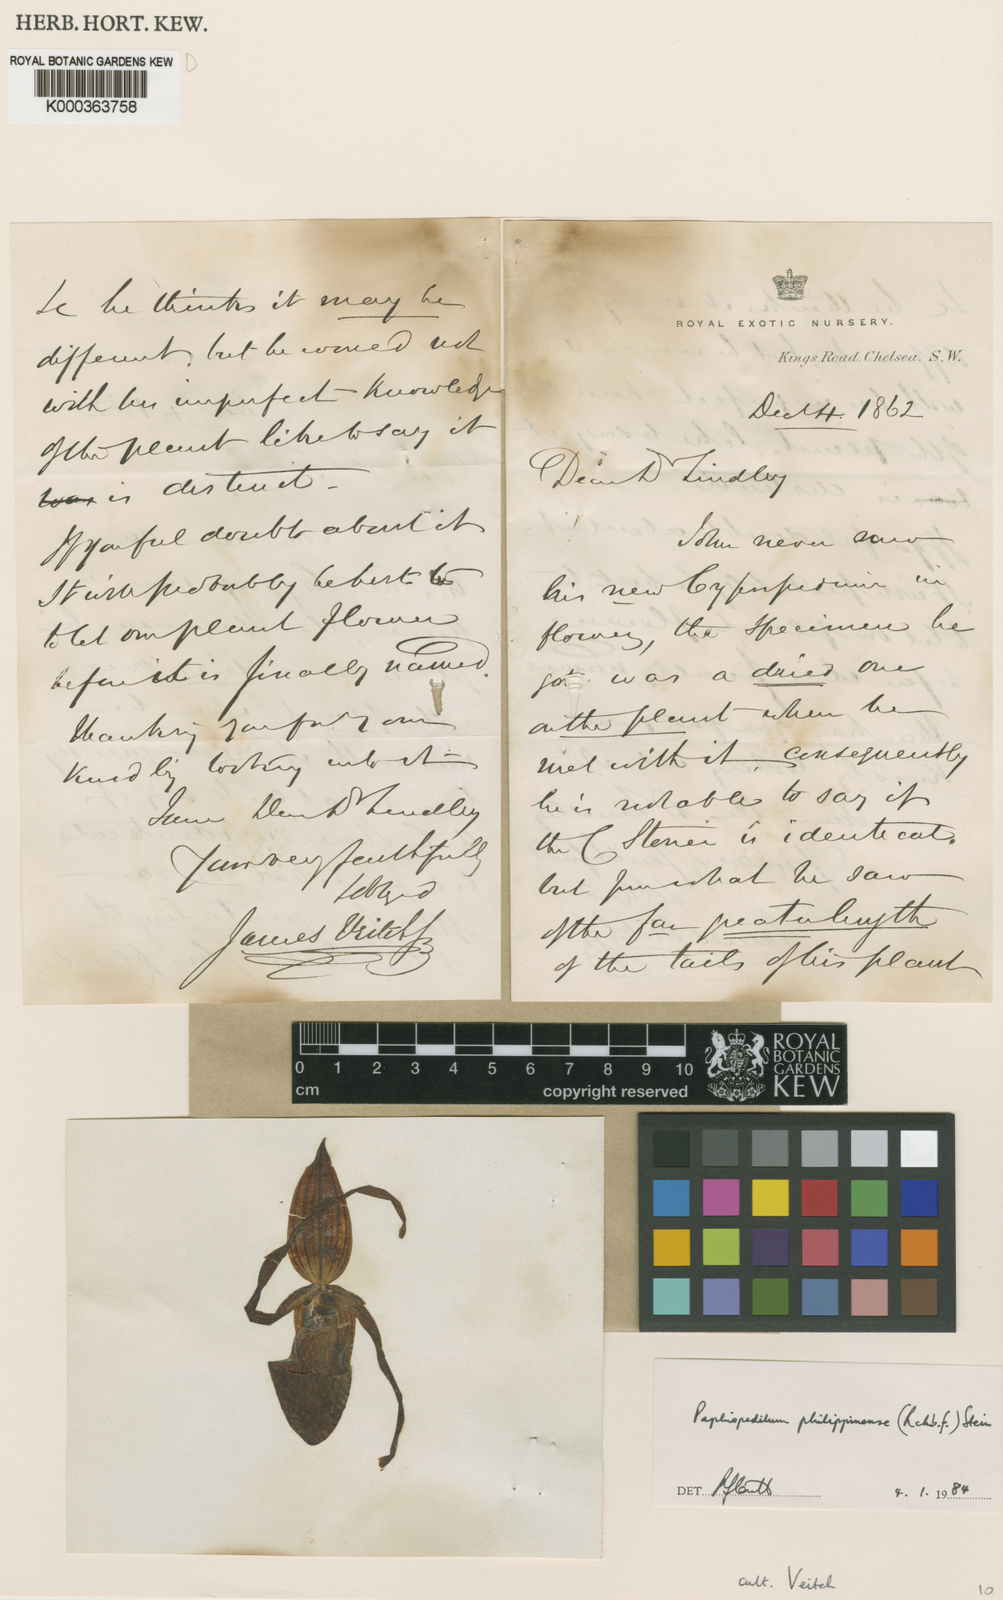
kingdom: Plantae
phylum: Tracheophyta
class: Liliopsida
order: Asparagales
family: Orchidaceae
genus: Paphiopedilum
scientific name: Paphiopedilum philippinense
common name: Philippine paphiopedilum
